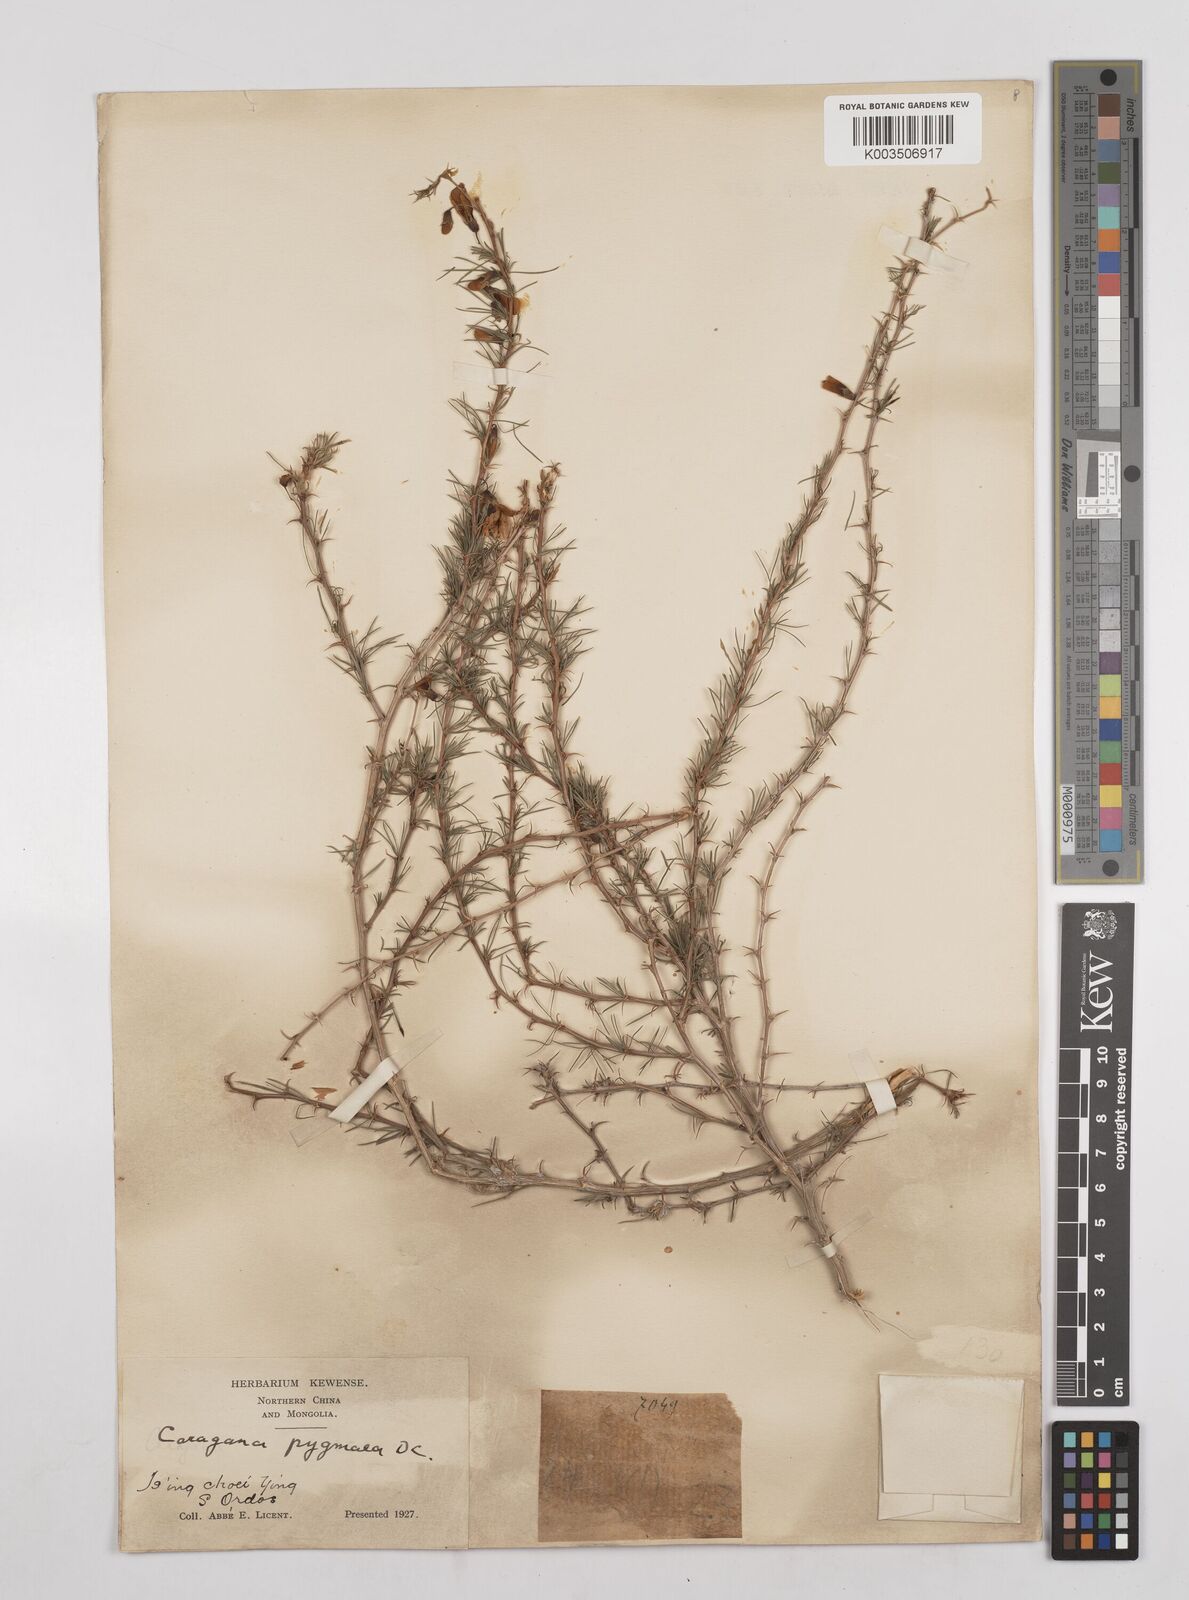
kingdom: Plantae
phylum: Tracheophyta
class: Magnoliopsida
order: Fabales
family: Fabaceae
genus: Caragana
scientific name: Caragana pygmaea
